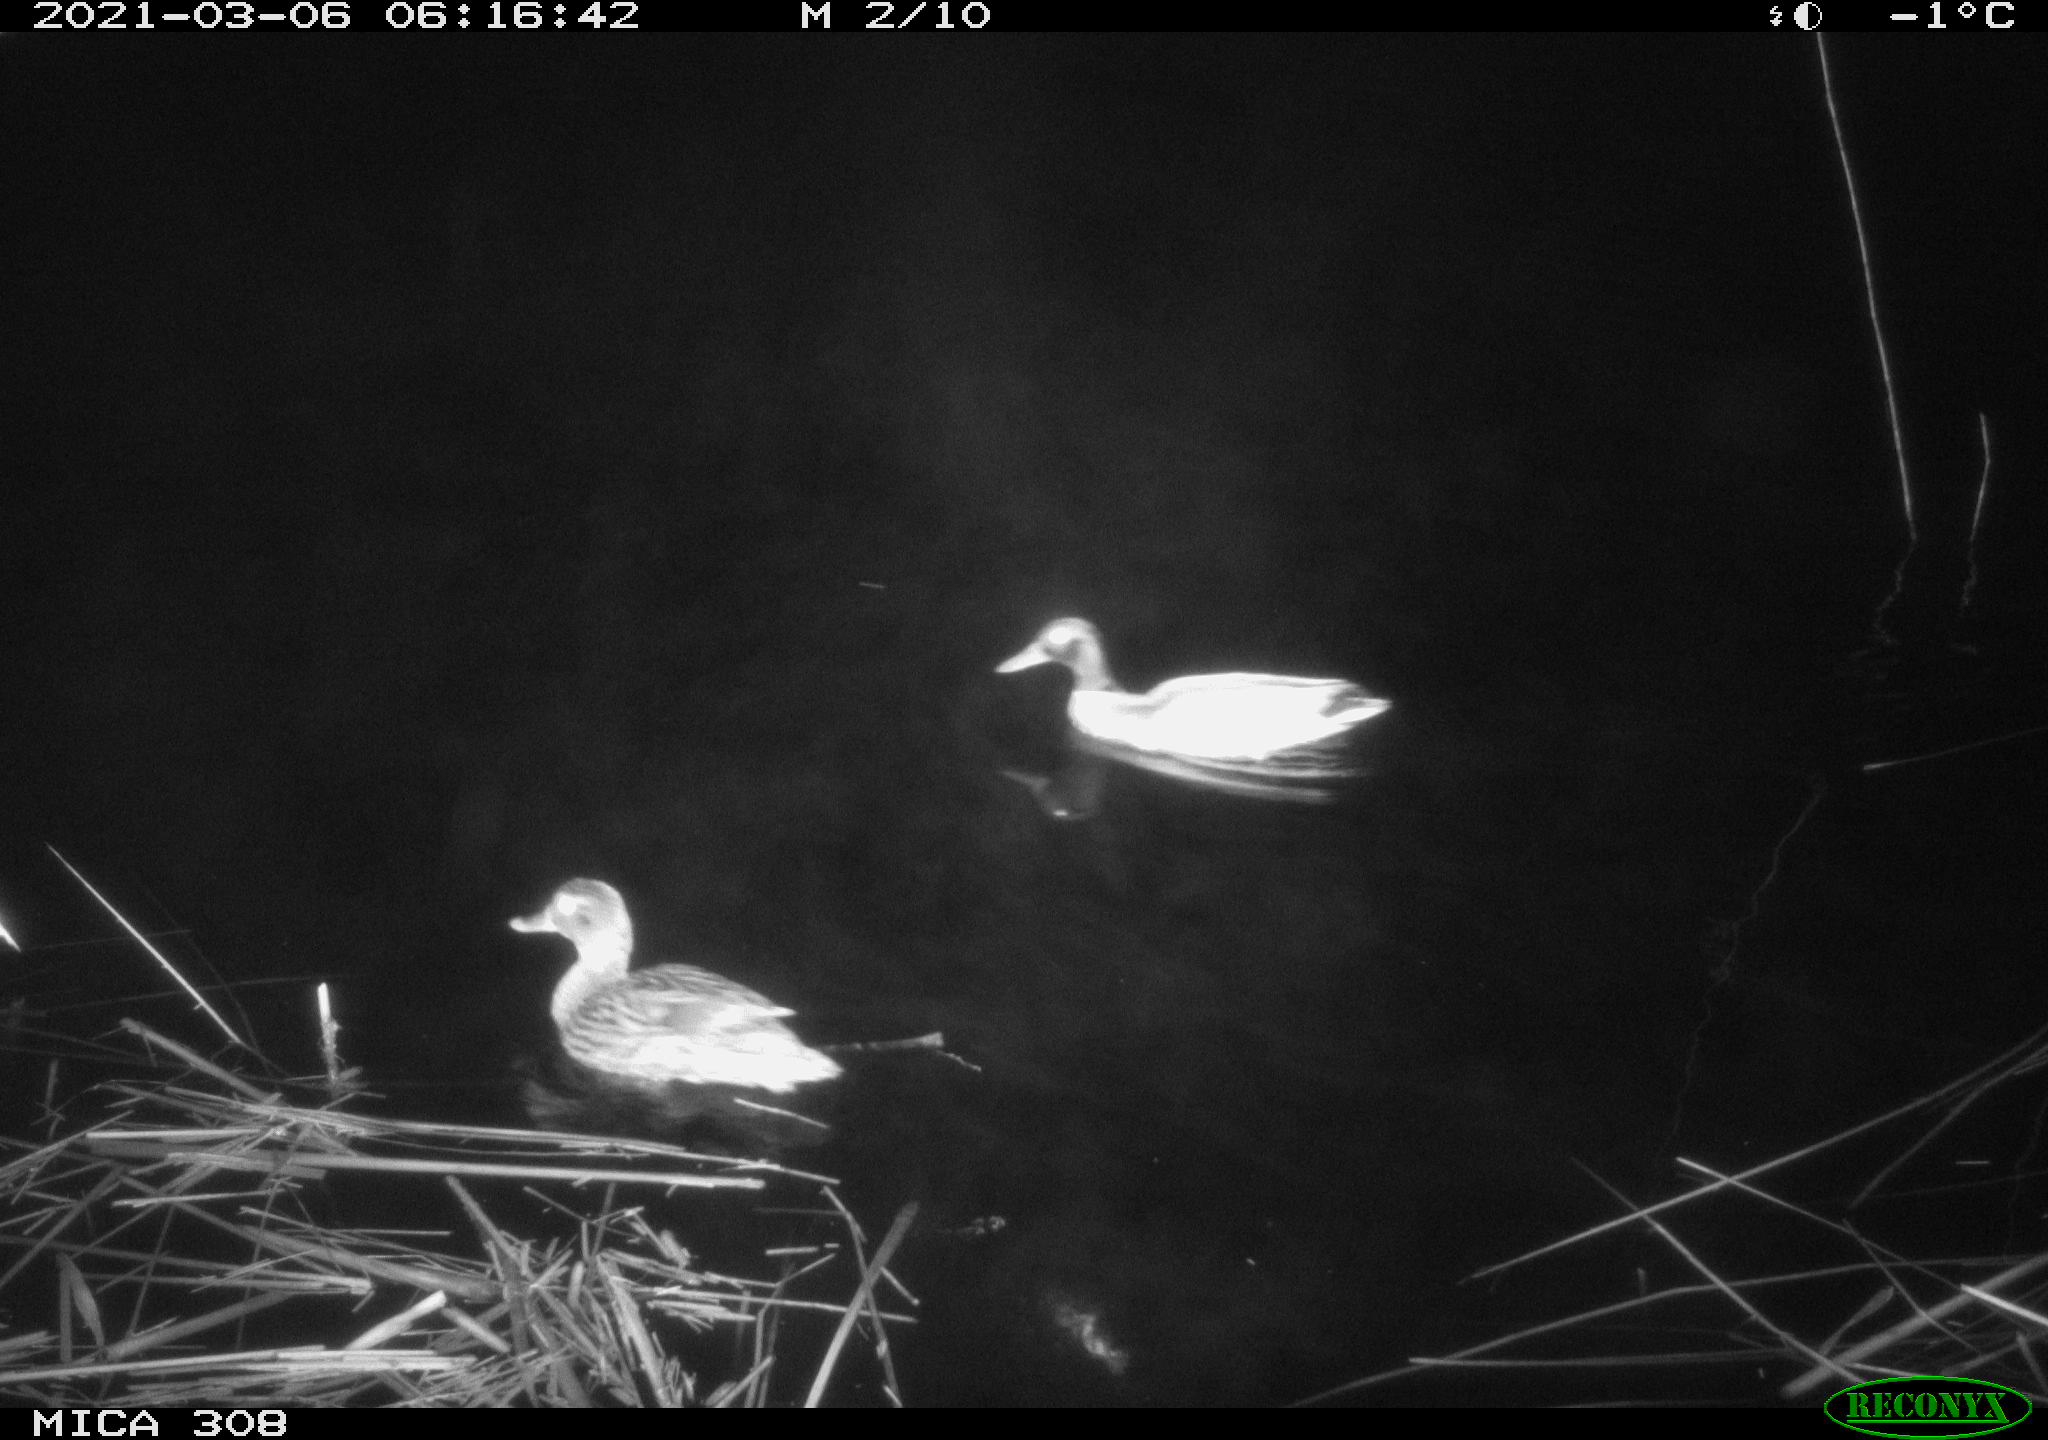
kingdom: Animalia
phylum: Chordata
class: Aves
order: Anseriformes
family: Anatidae
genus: Anas
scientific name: Anas platyrhynchos
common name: Mallard
